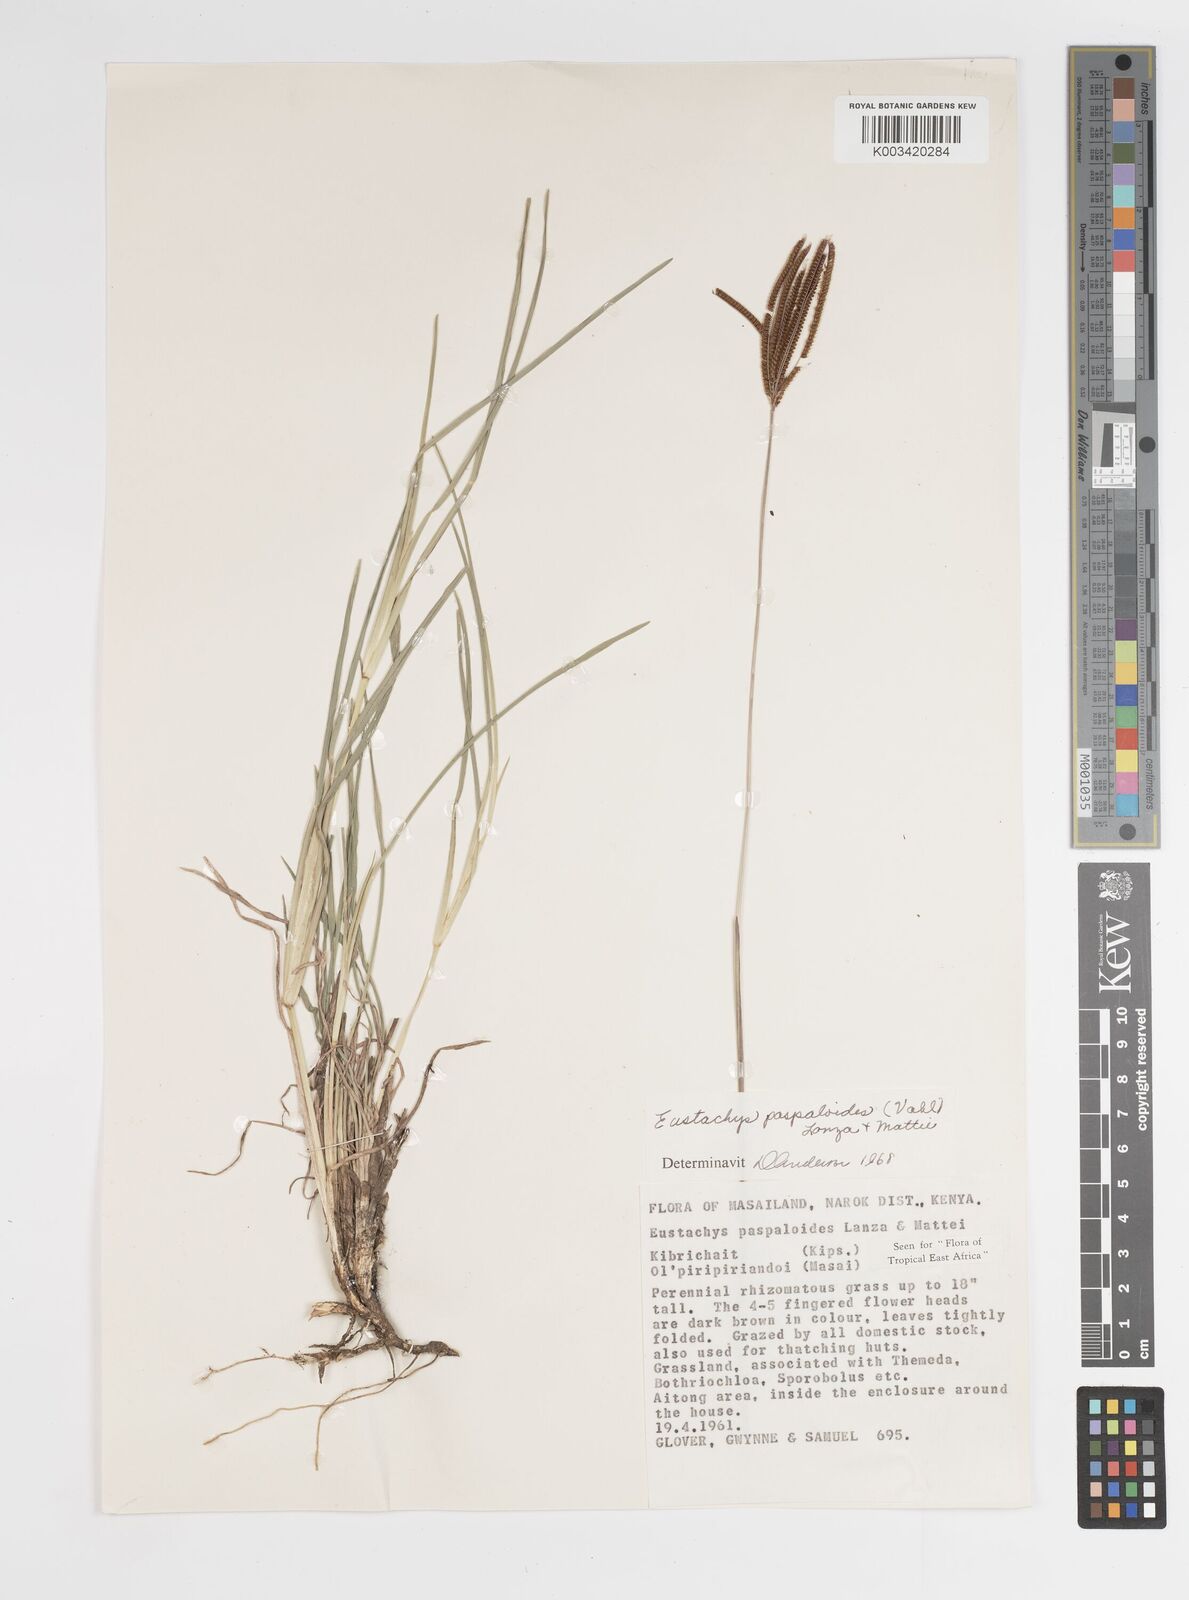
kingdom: Plantae
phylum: Tracheophyta
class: Liliopsida
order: Poales
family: Poaceae
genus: Eustachys
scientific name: Eustachys paspaloides
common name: Caribbean fingergrass
